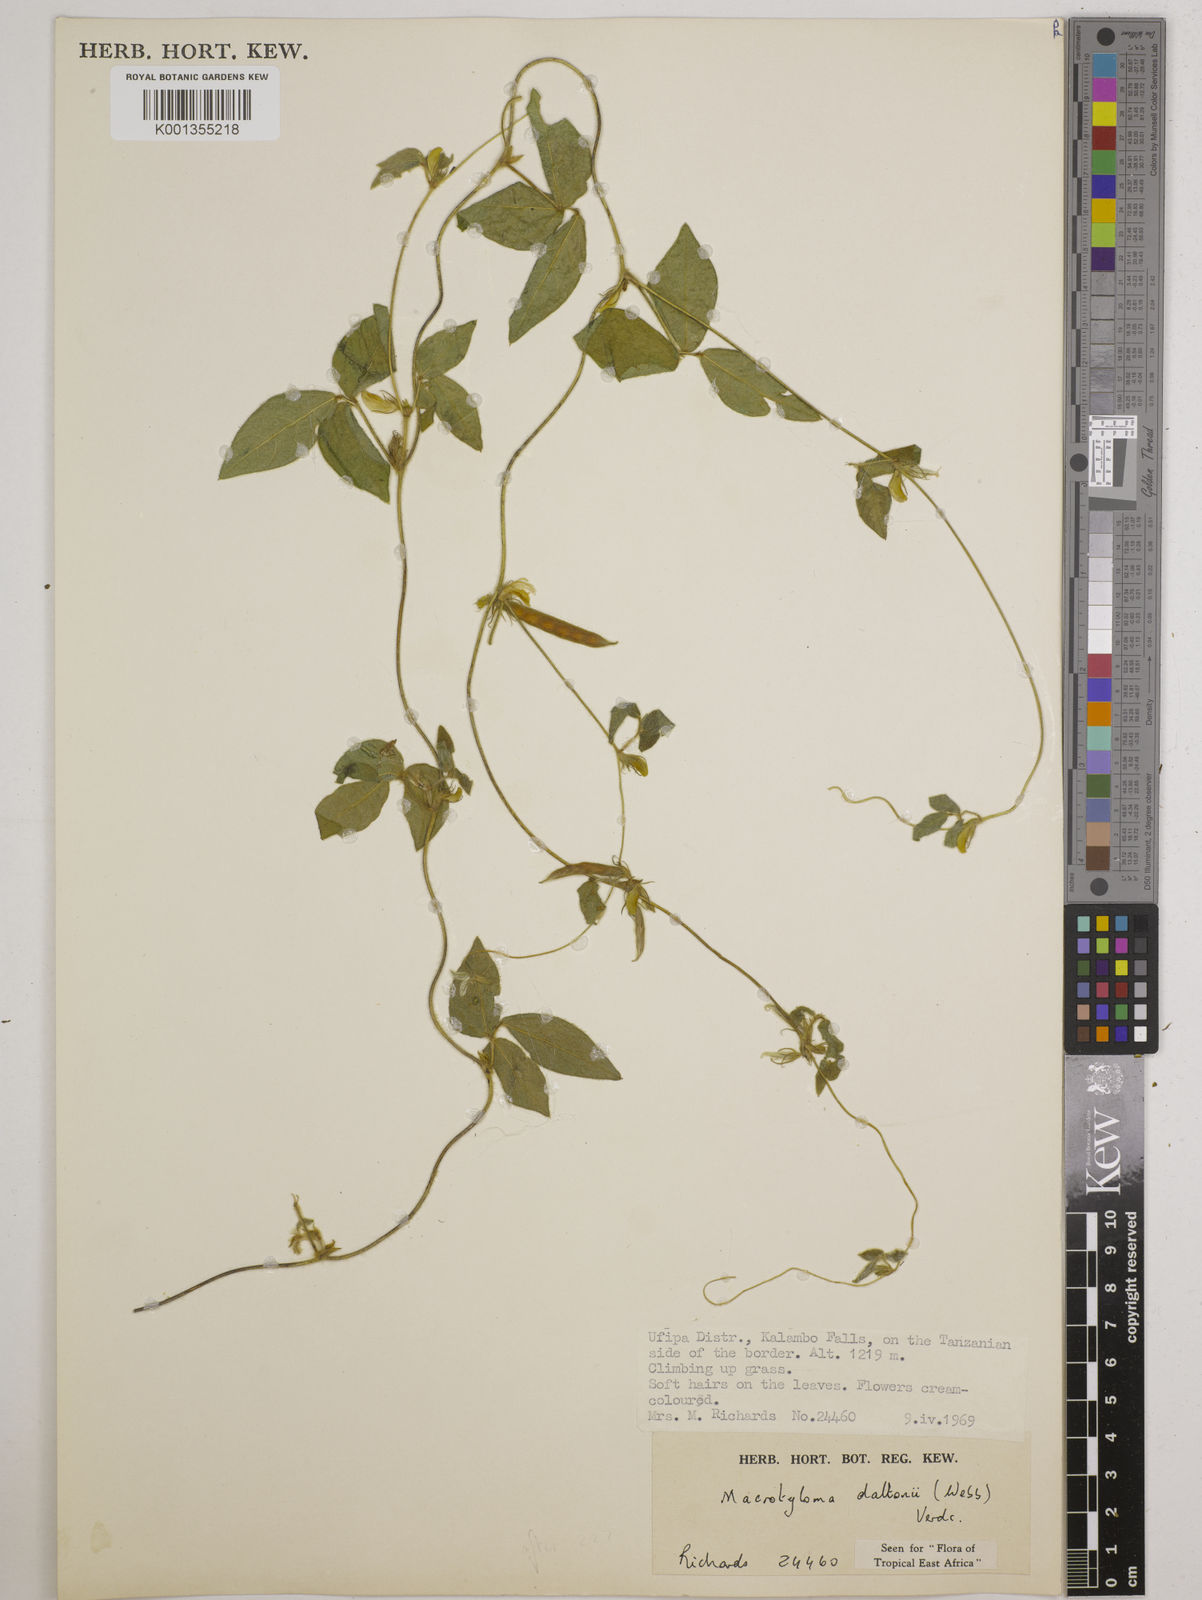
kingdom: Plantae
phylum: Tracheophyta
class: Magnoliopsida
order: Fabales
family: Fabaceae
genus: Macrotyloma
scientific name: Macrotyloma daltonii
